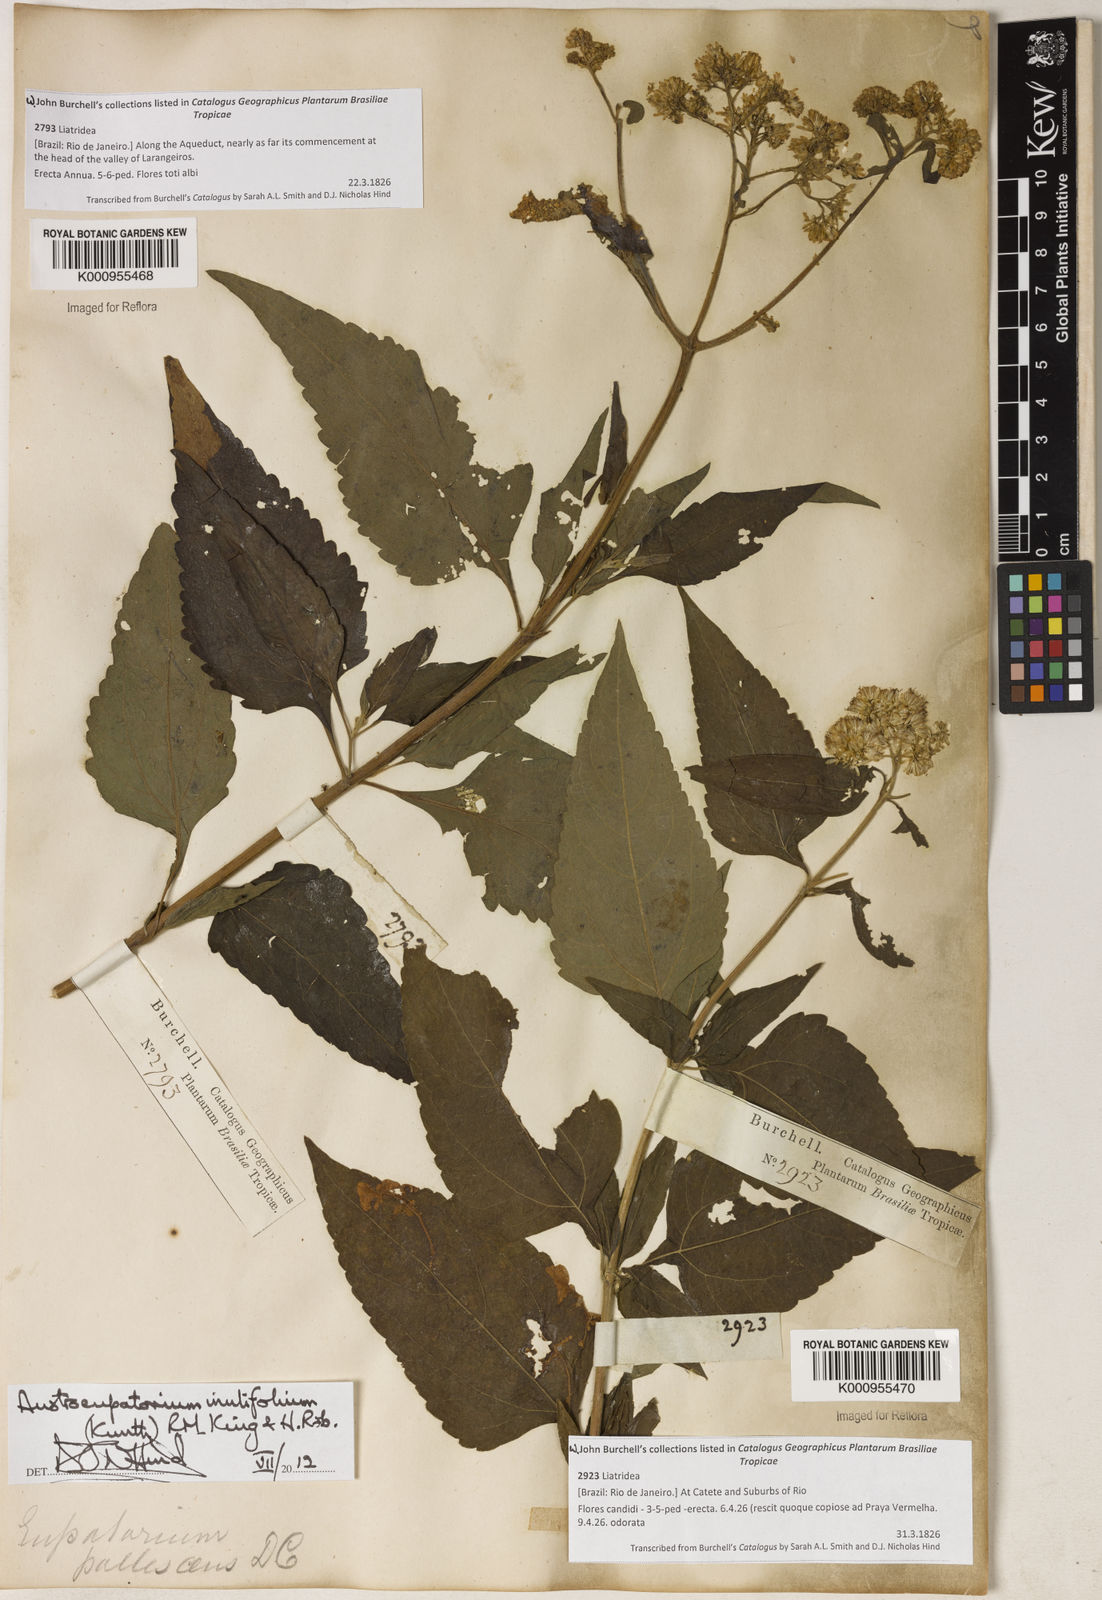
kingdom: Plantae
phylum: Tracheophyta
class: Magnoliopsida
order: Asterales
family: Asteraceae
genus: Austroeupatorium
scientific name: Austroeupatorium inulifolium
